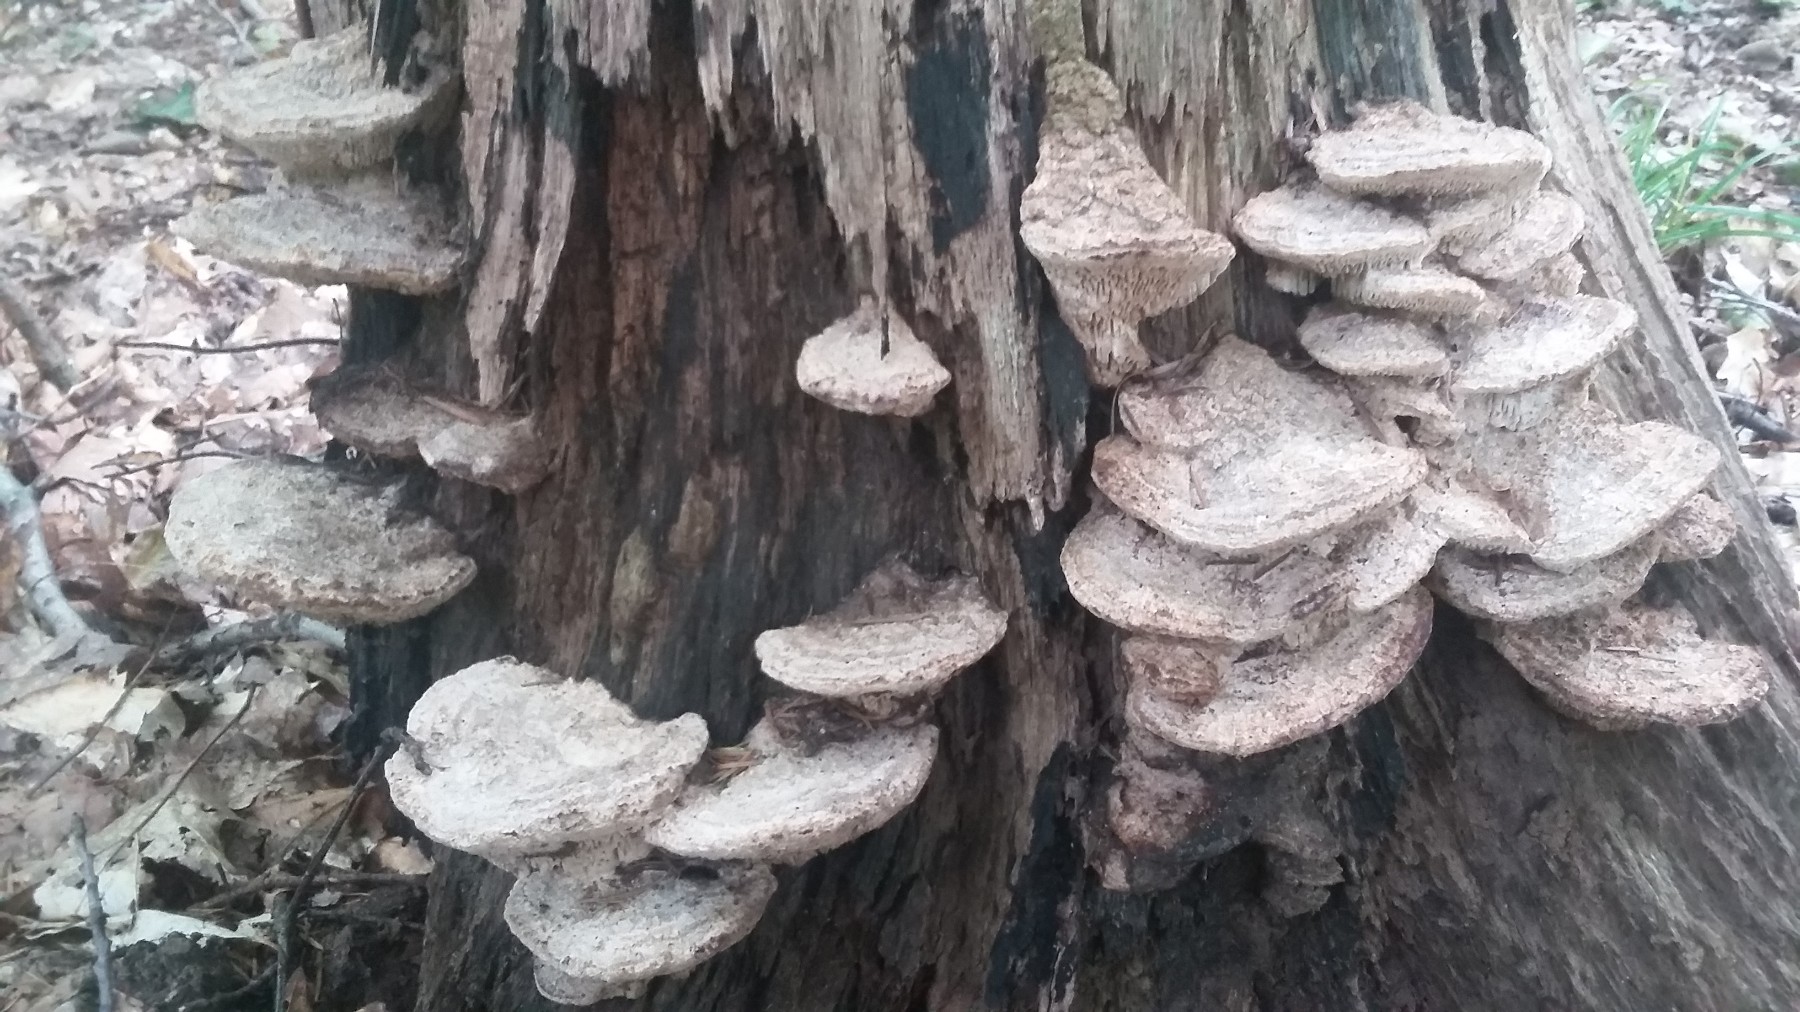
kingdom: Fungi
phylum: Basidiomycota
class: Agaricomycetes
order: Polyporales
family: Fomitopsidaceae
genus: Daedalea
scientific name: Daedalea quercina
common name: ege-labyrintsvamp
